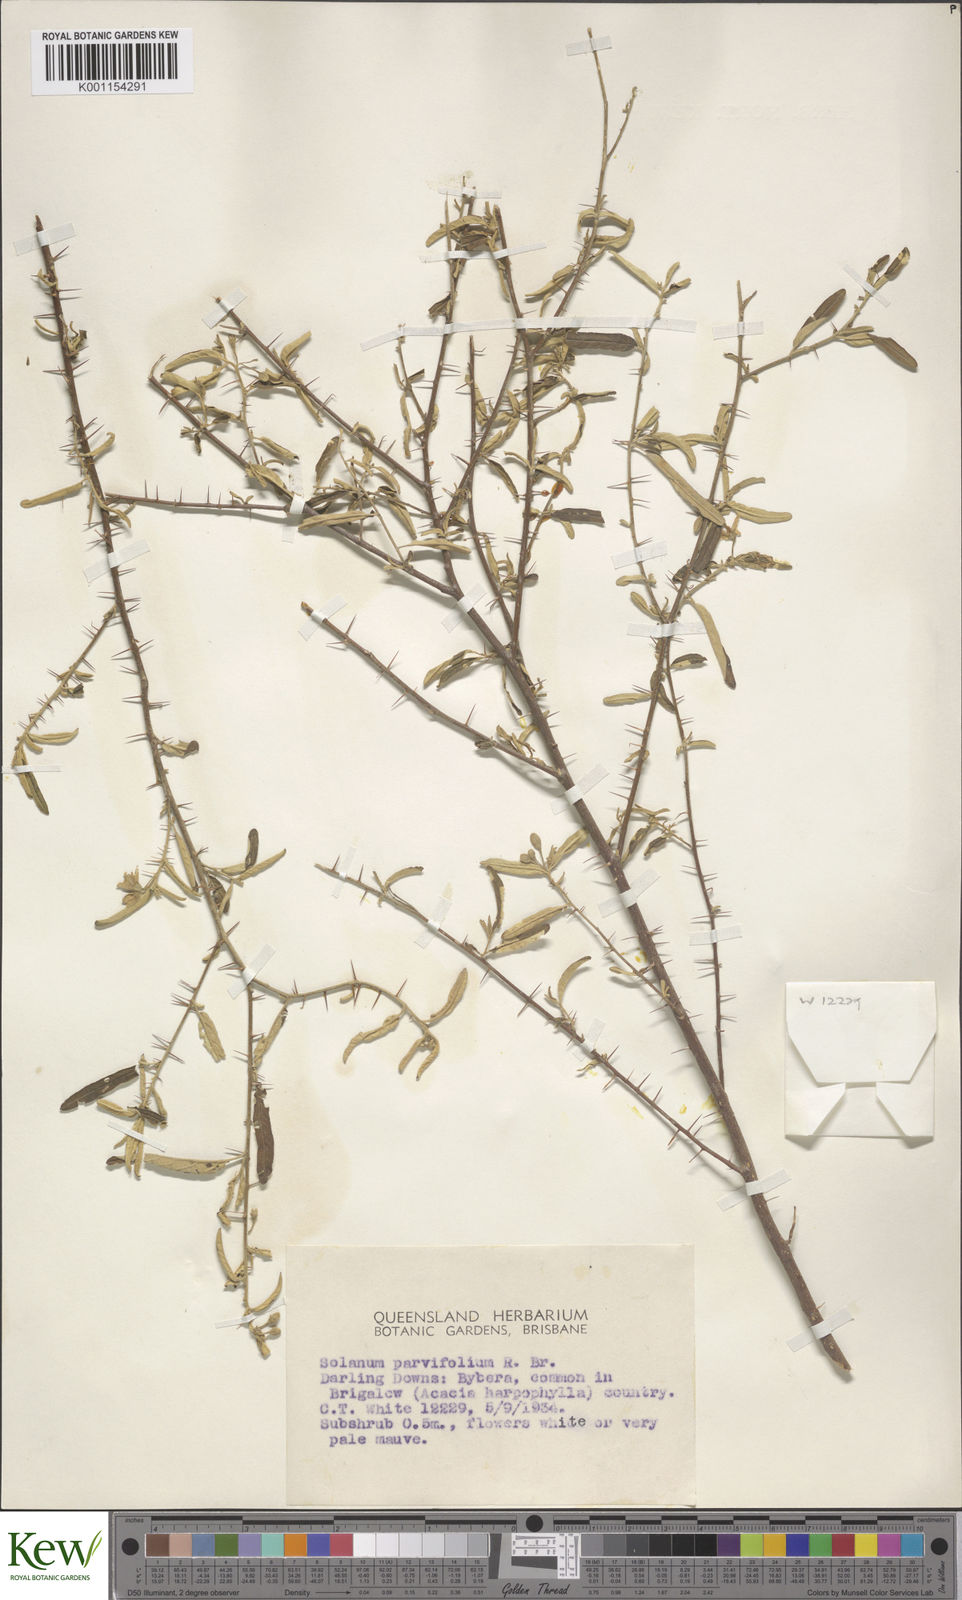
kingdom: Plantae
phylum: Tracheophyta
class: Magnoliopsida
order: Solanales
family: Solanaceae
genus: Solanum
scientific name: Solanum parvifolium
